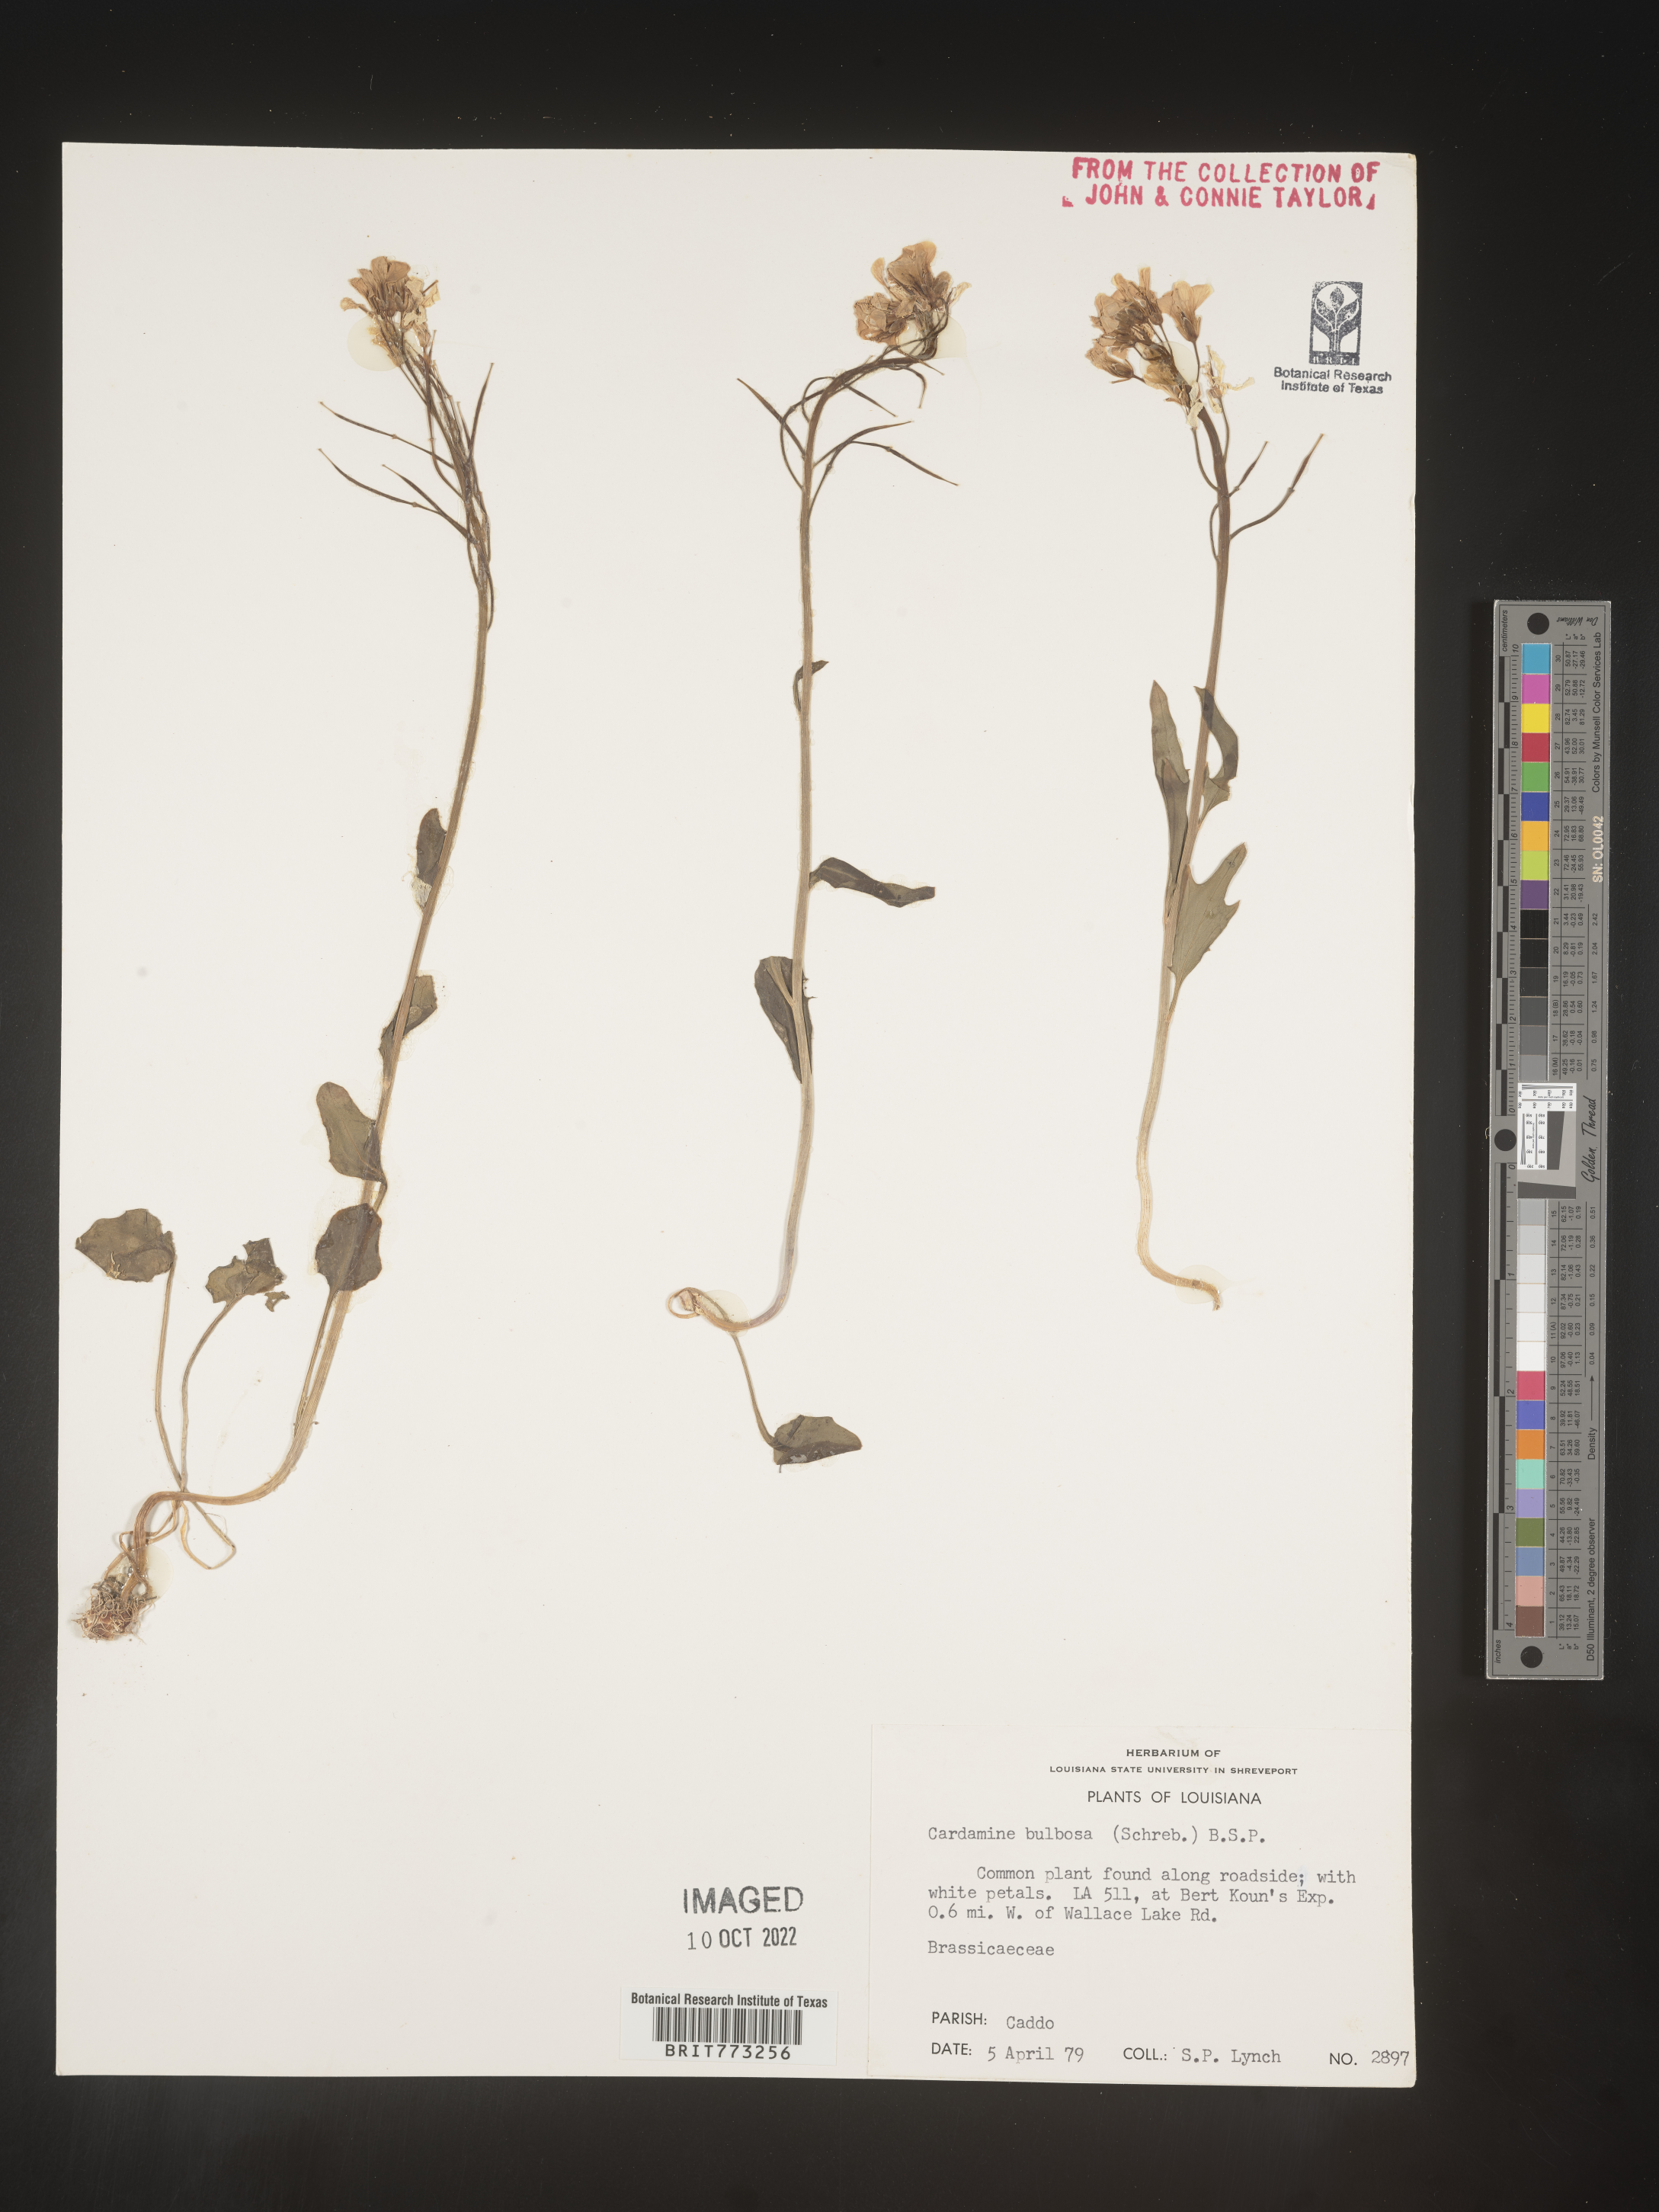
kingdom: Plantae
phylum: Tracheophyta
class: Magnoliopsida
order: Brassicales
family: Brassicaceae
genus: Cardamine
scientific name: Cardamine bulbosa
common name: Spring cress
